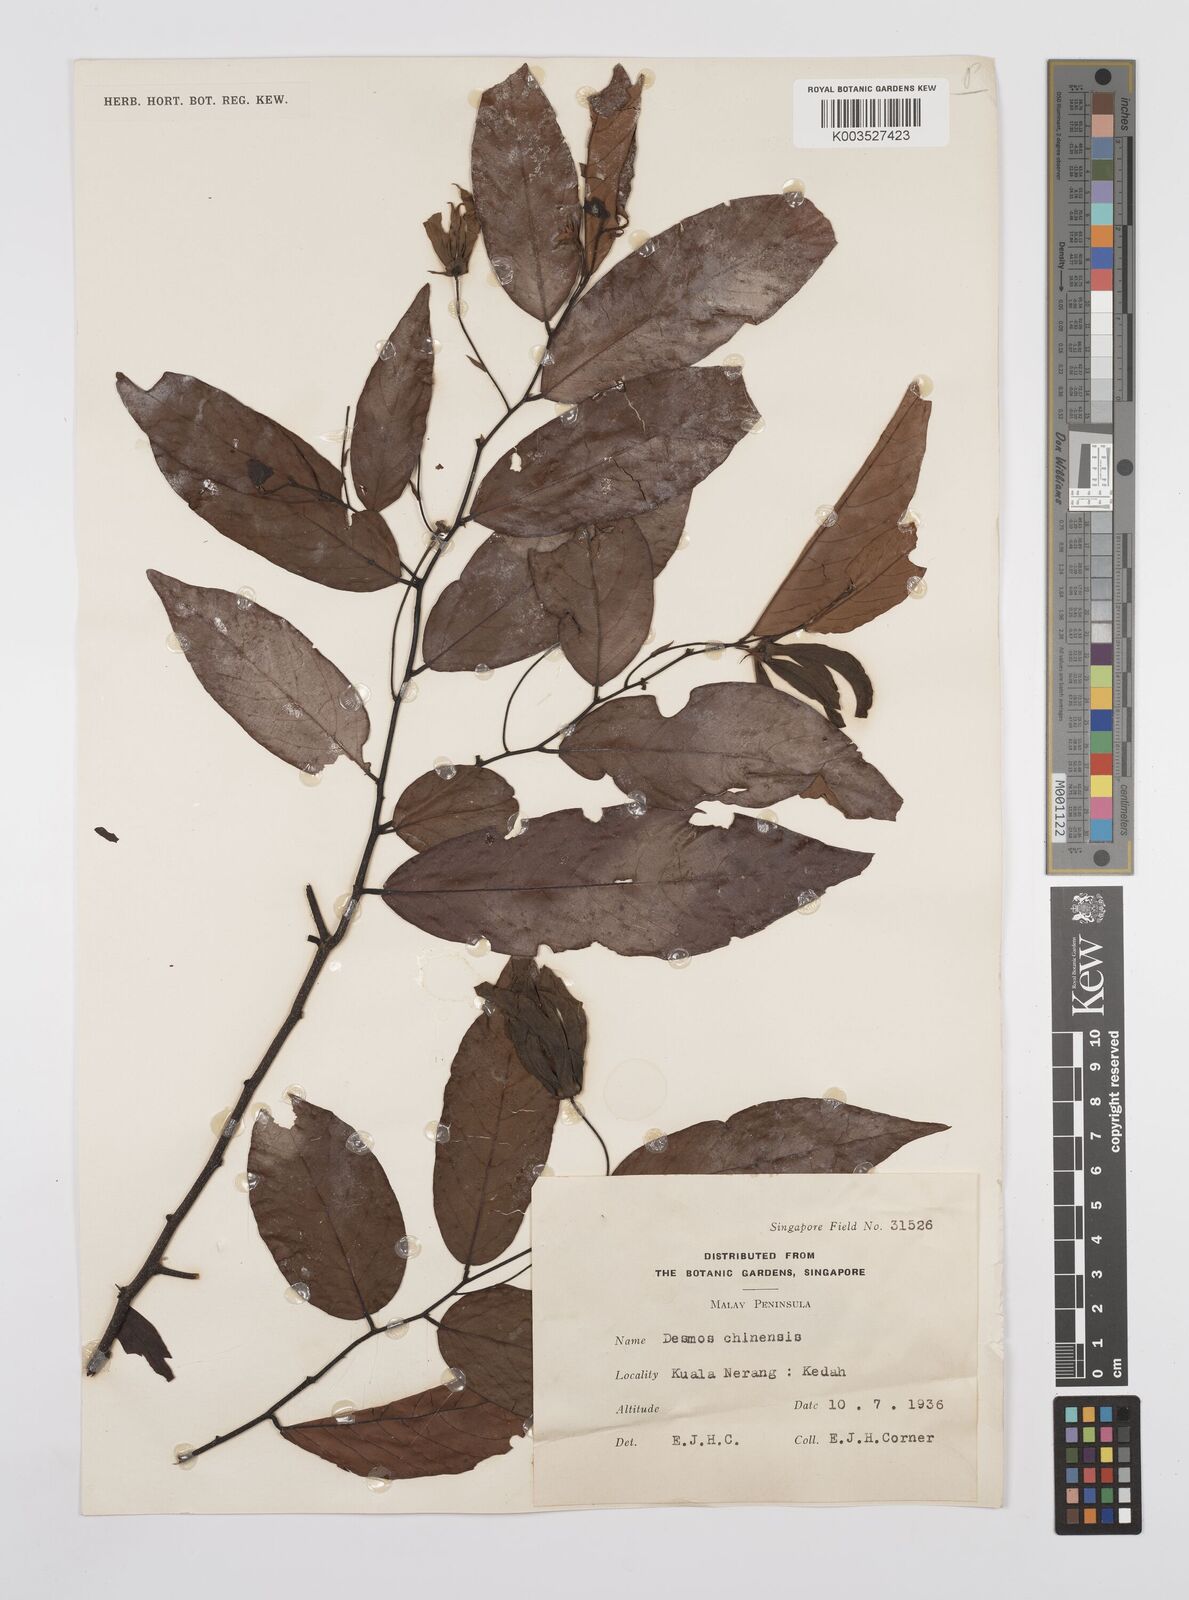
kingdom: Plantae
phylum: Tracheophyta
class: Magnoliopsida
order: Magnoliales
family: Annonaceae
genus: Desmos
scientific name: Desmos chinensis
